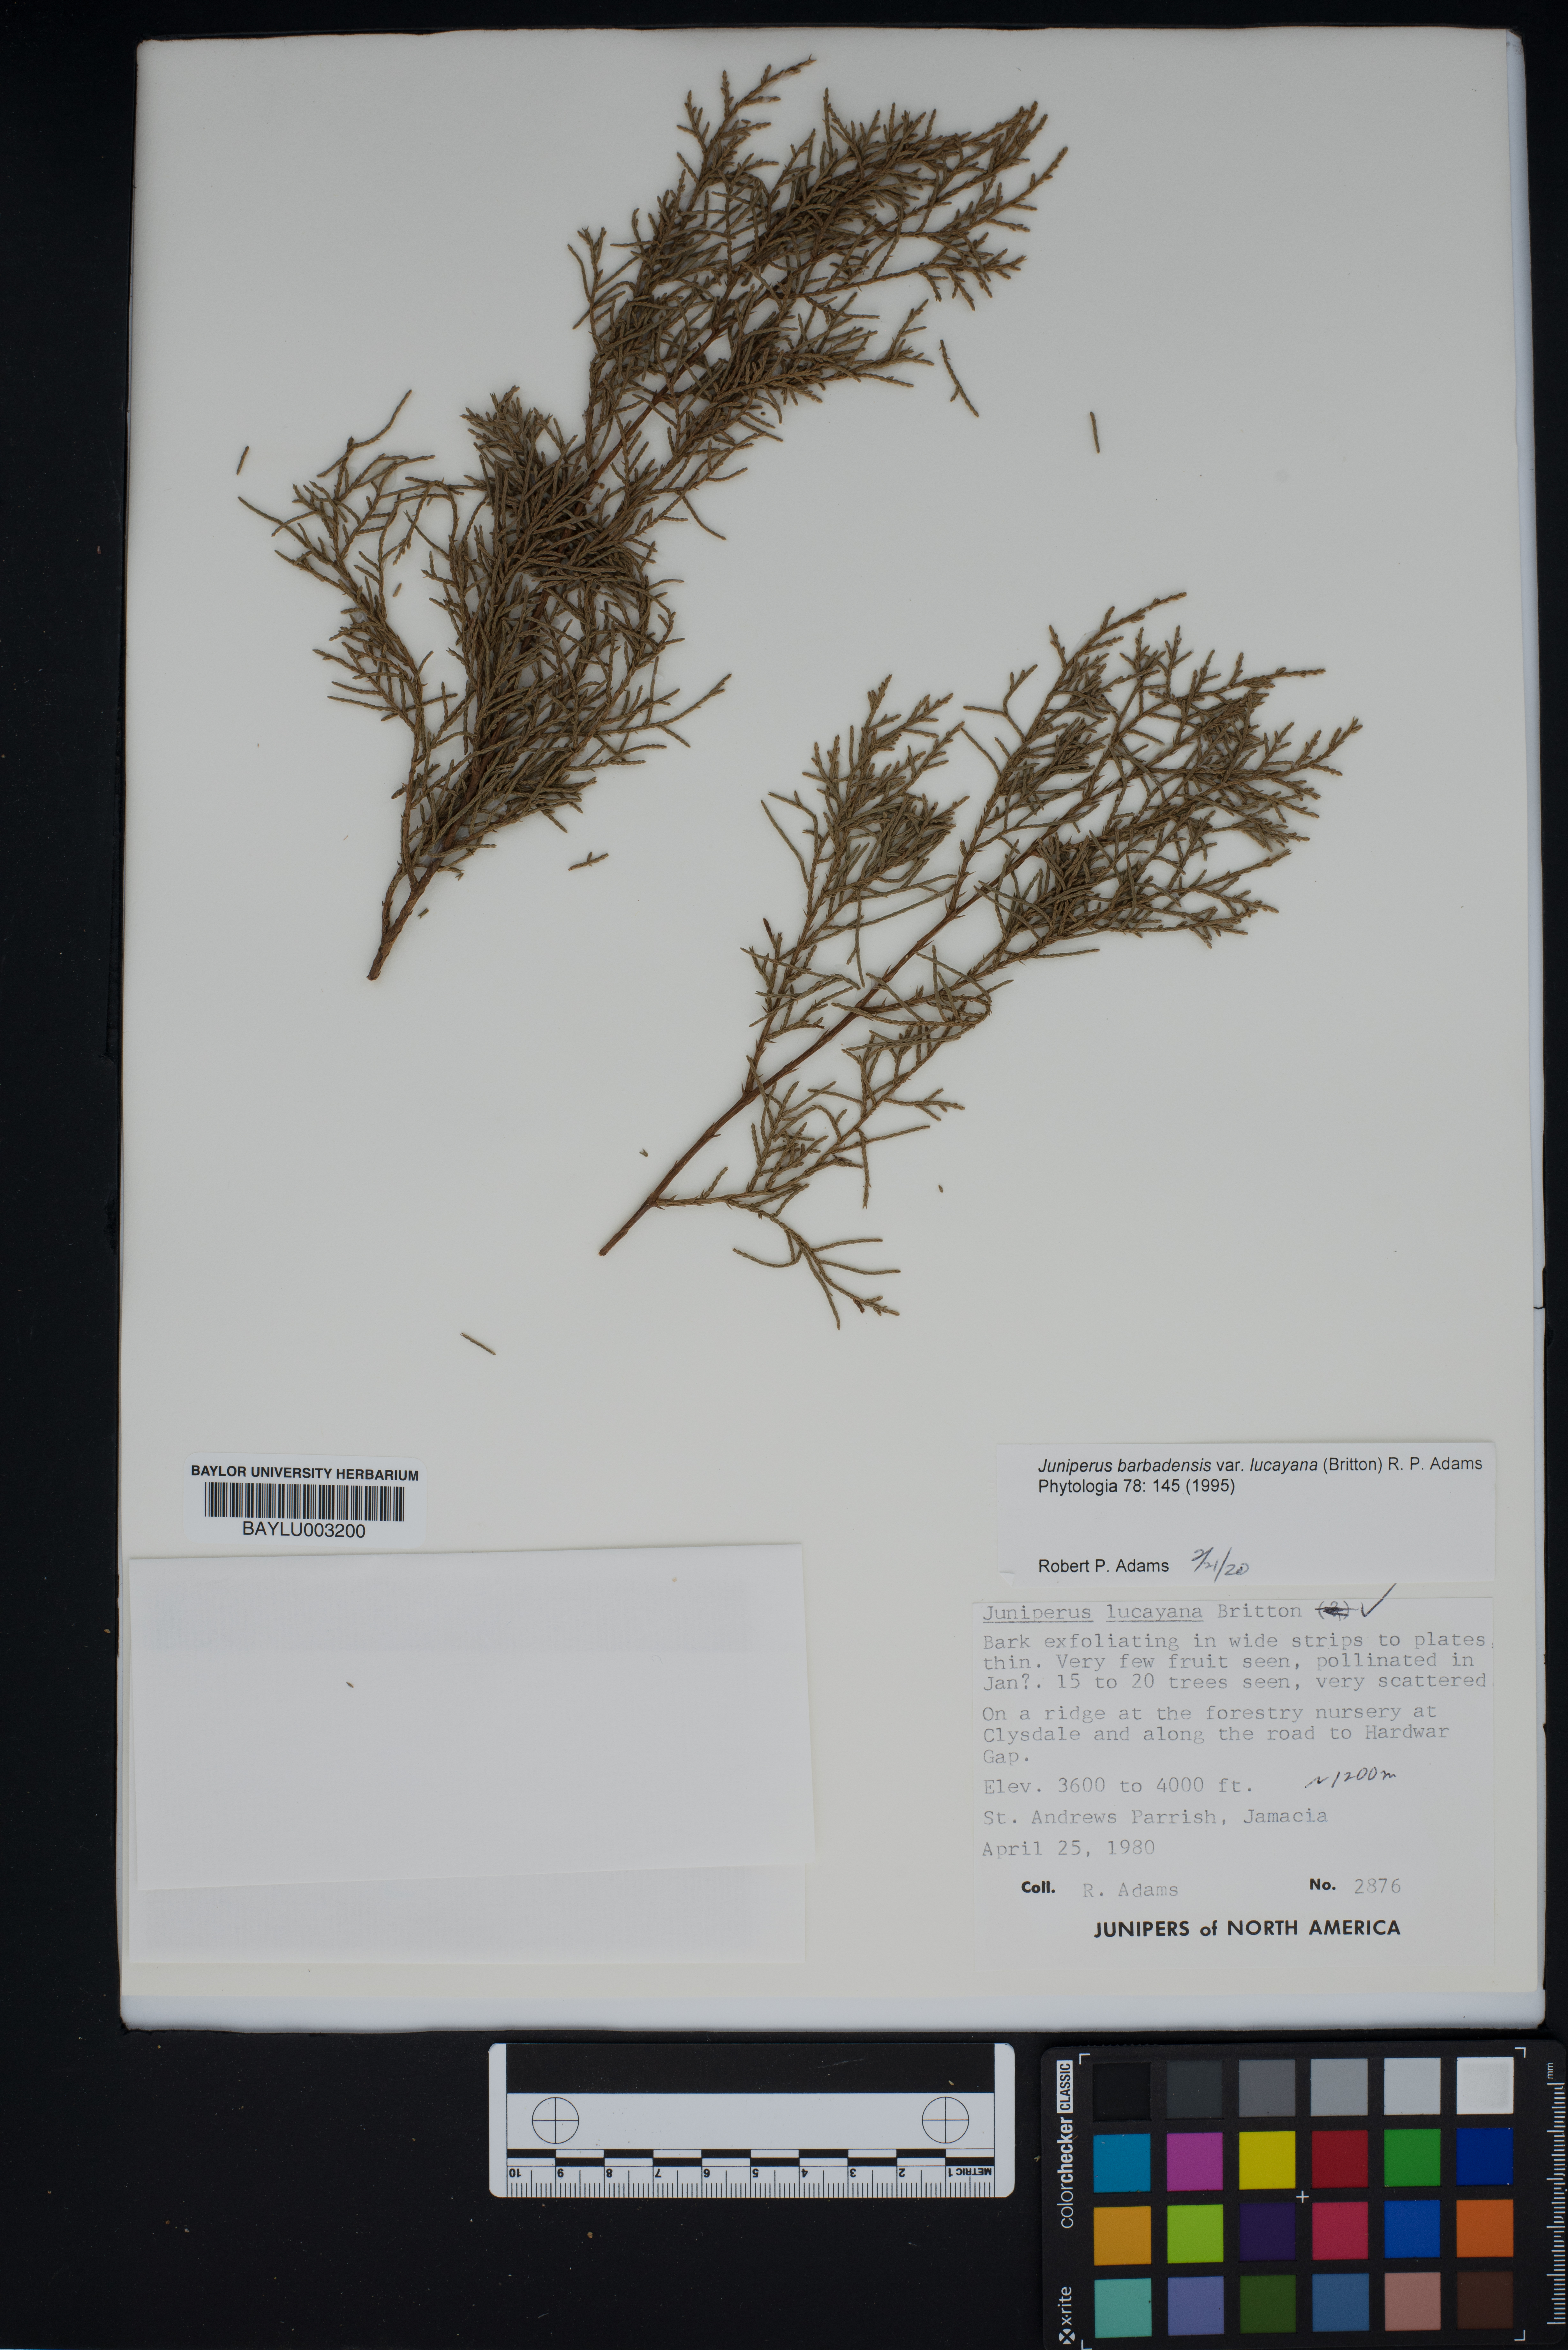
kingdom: Plantae
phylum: Tracheophyta
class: Pinopsida
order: Pinales
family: Cupressaceae
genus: Juniperus
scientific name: Juniperus barbadensis
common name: West indies juniper
